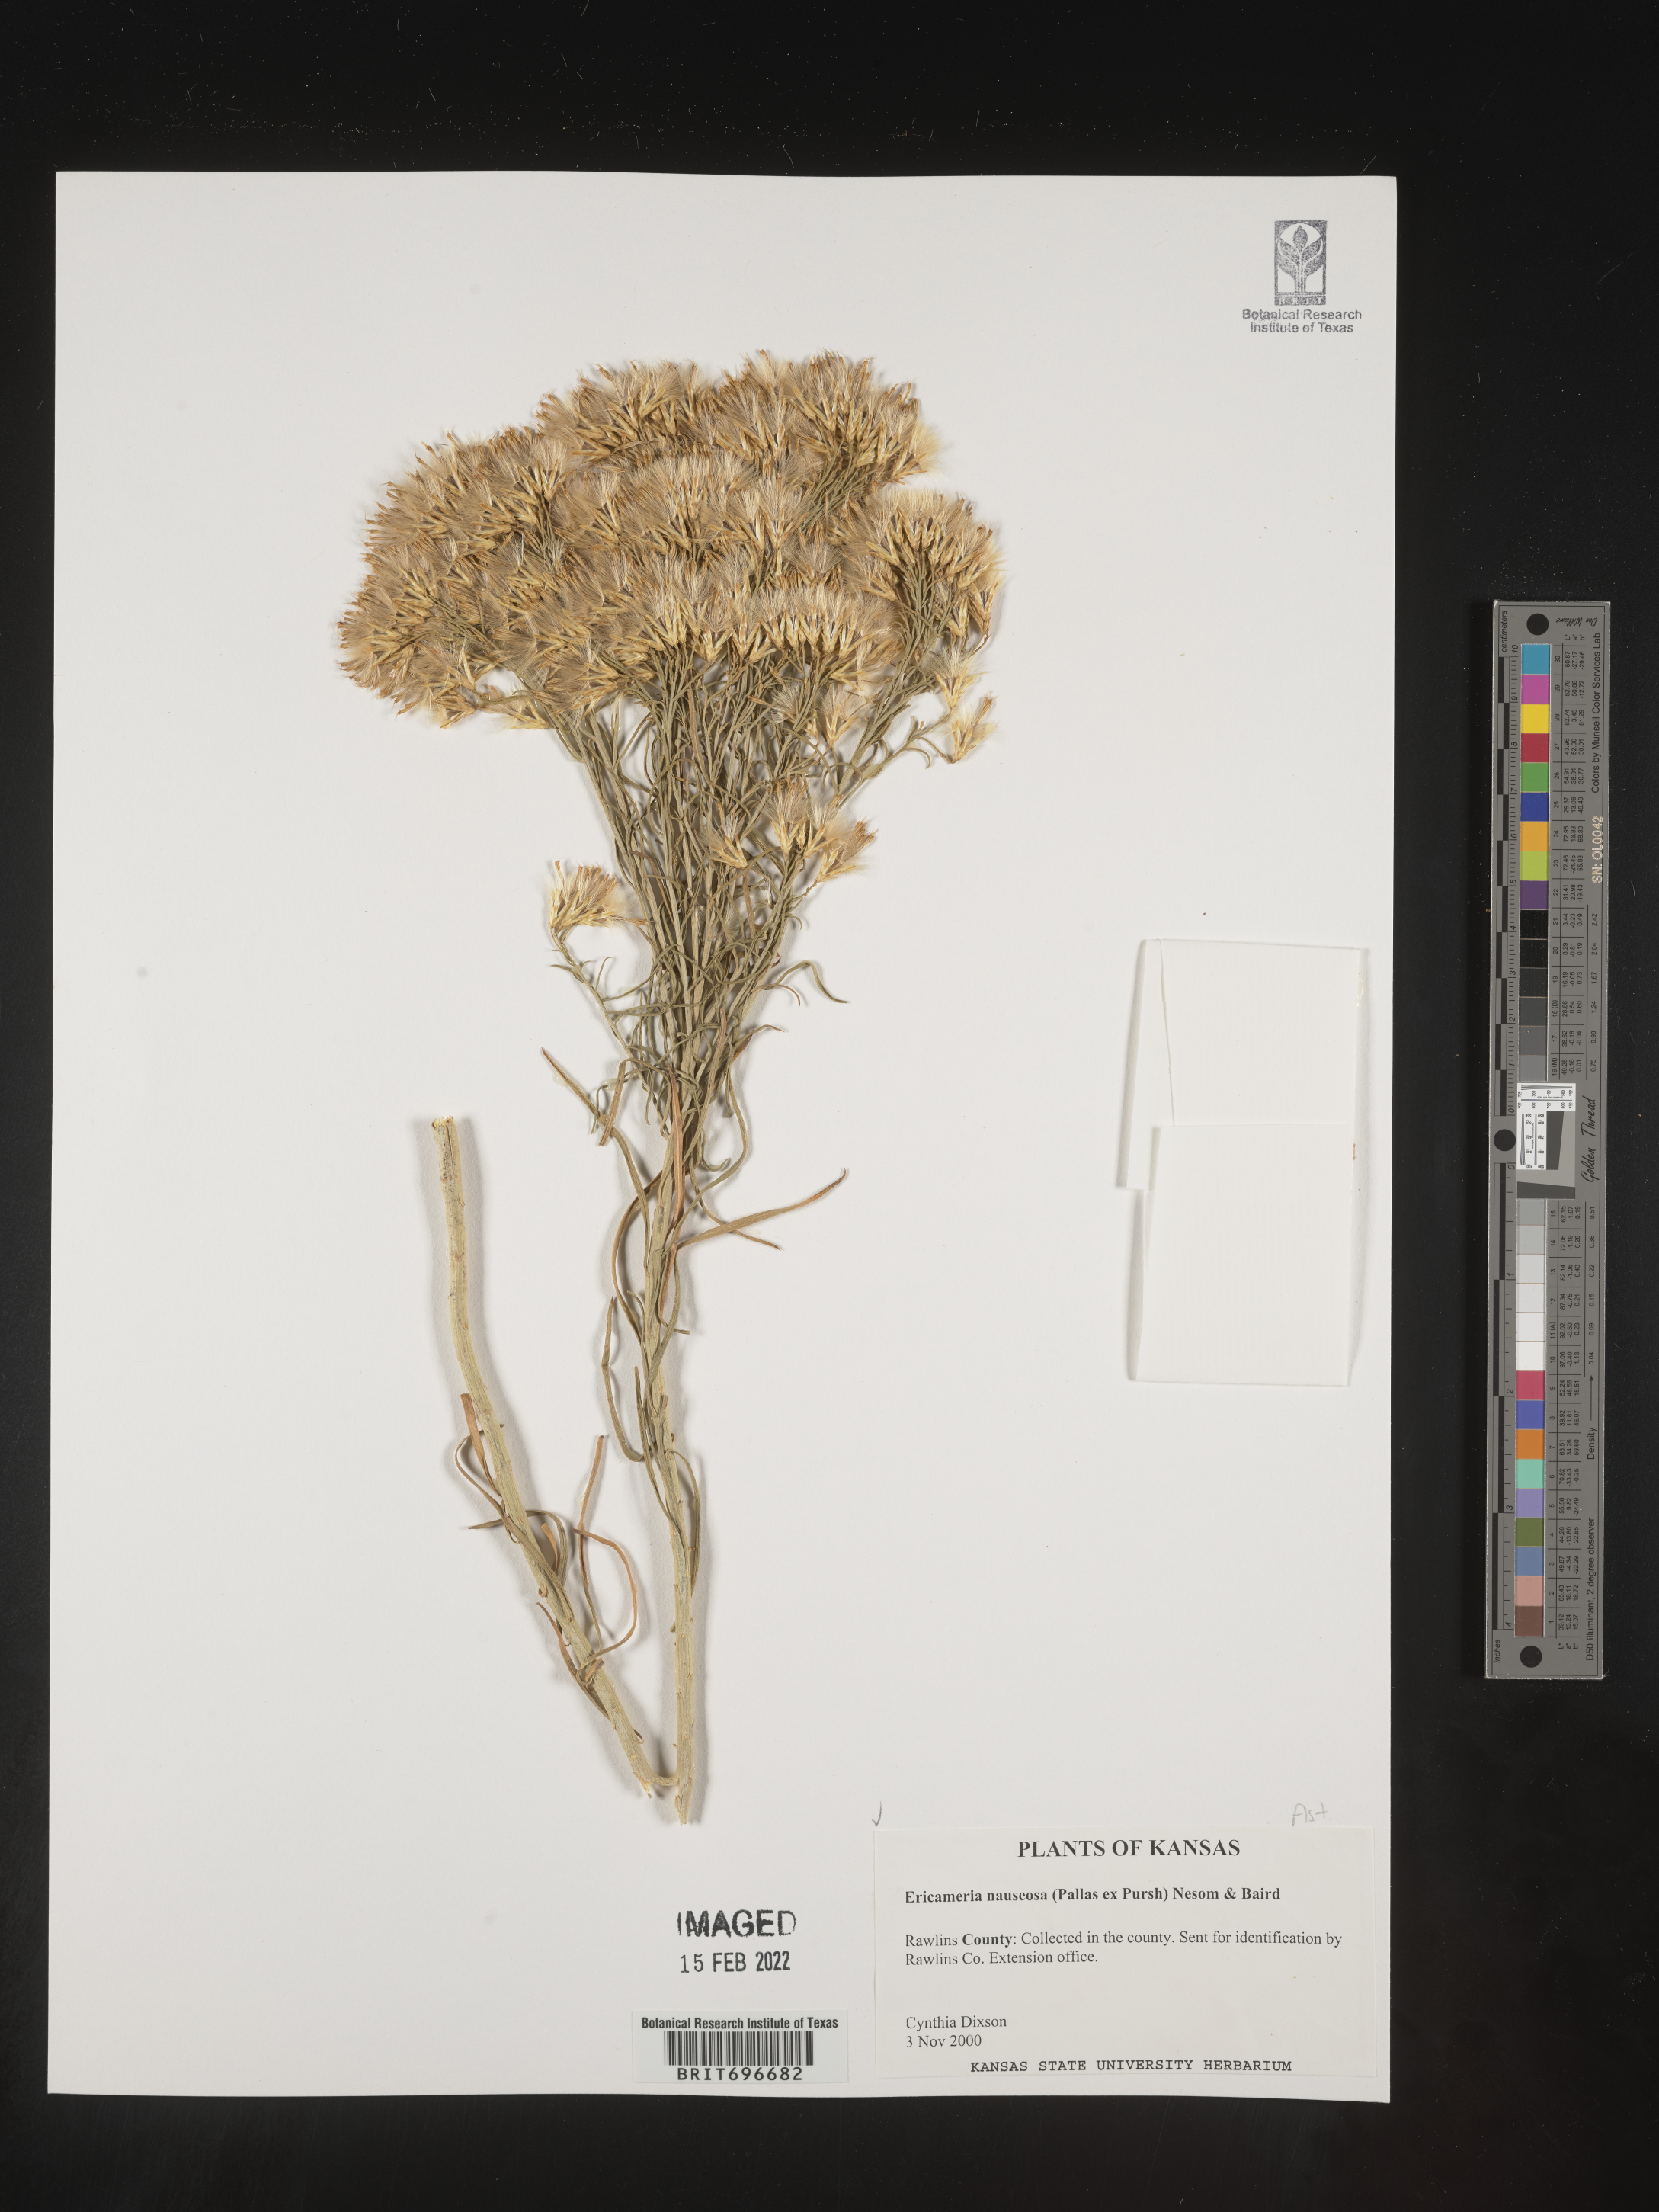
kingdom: Plantae
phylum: Tracheophyta
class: Magnoliopsida
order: Asterales
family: Asteraceae
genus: Ericameria
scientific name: Ericameria nauseosa
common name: Rubber rabbitbrush
